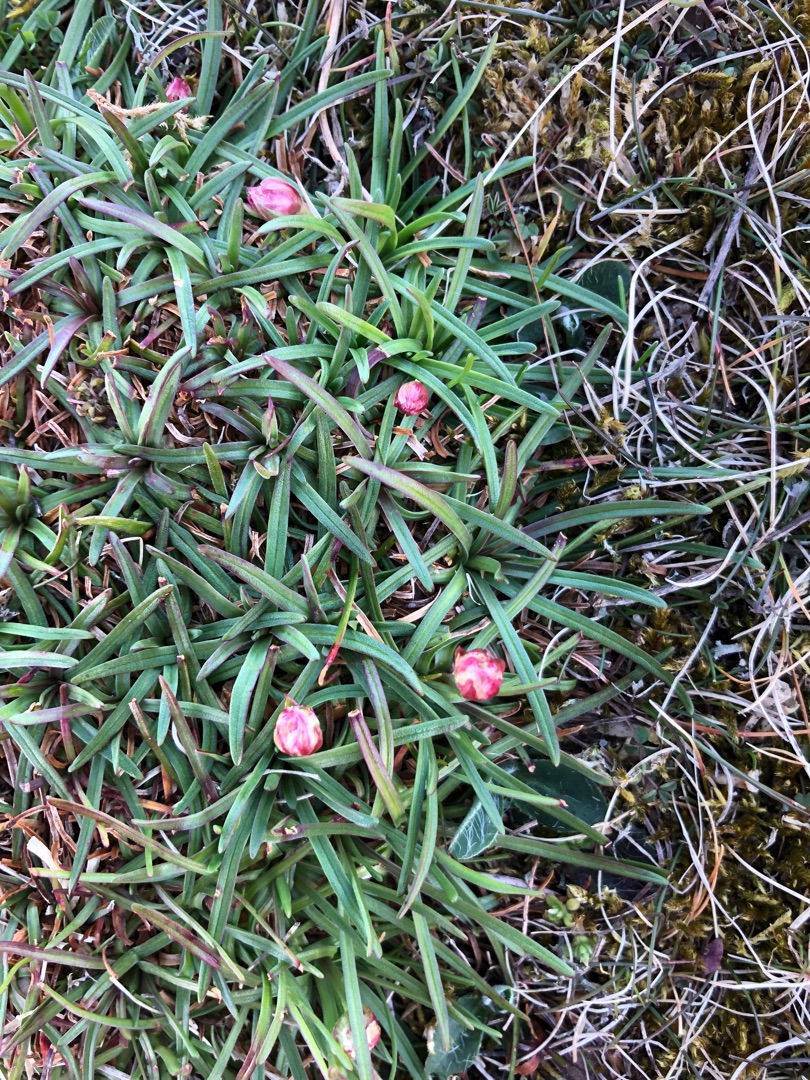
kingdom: Plantae
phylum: Tracheophyta
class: Magnoliopsida
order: Caryophyllales
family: Plumbaginaceae
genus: Armeria
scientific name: Armeria maritima
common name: Engelskgræs
